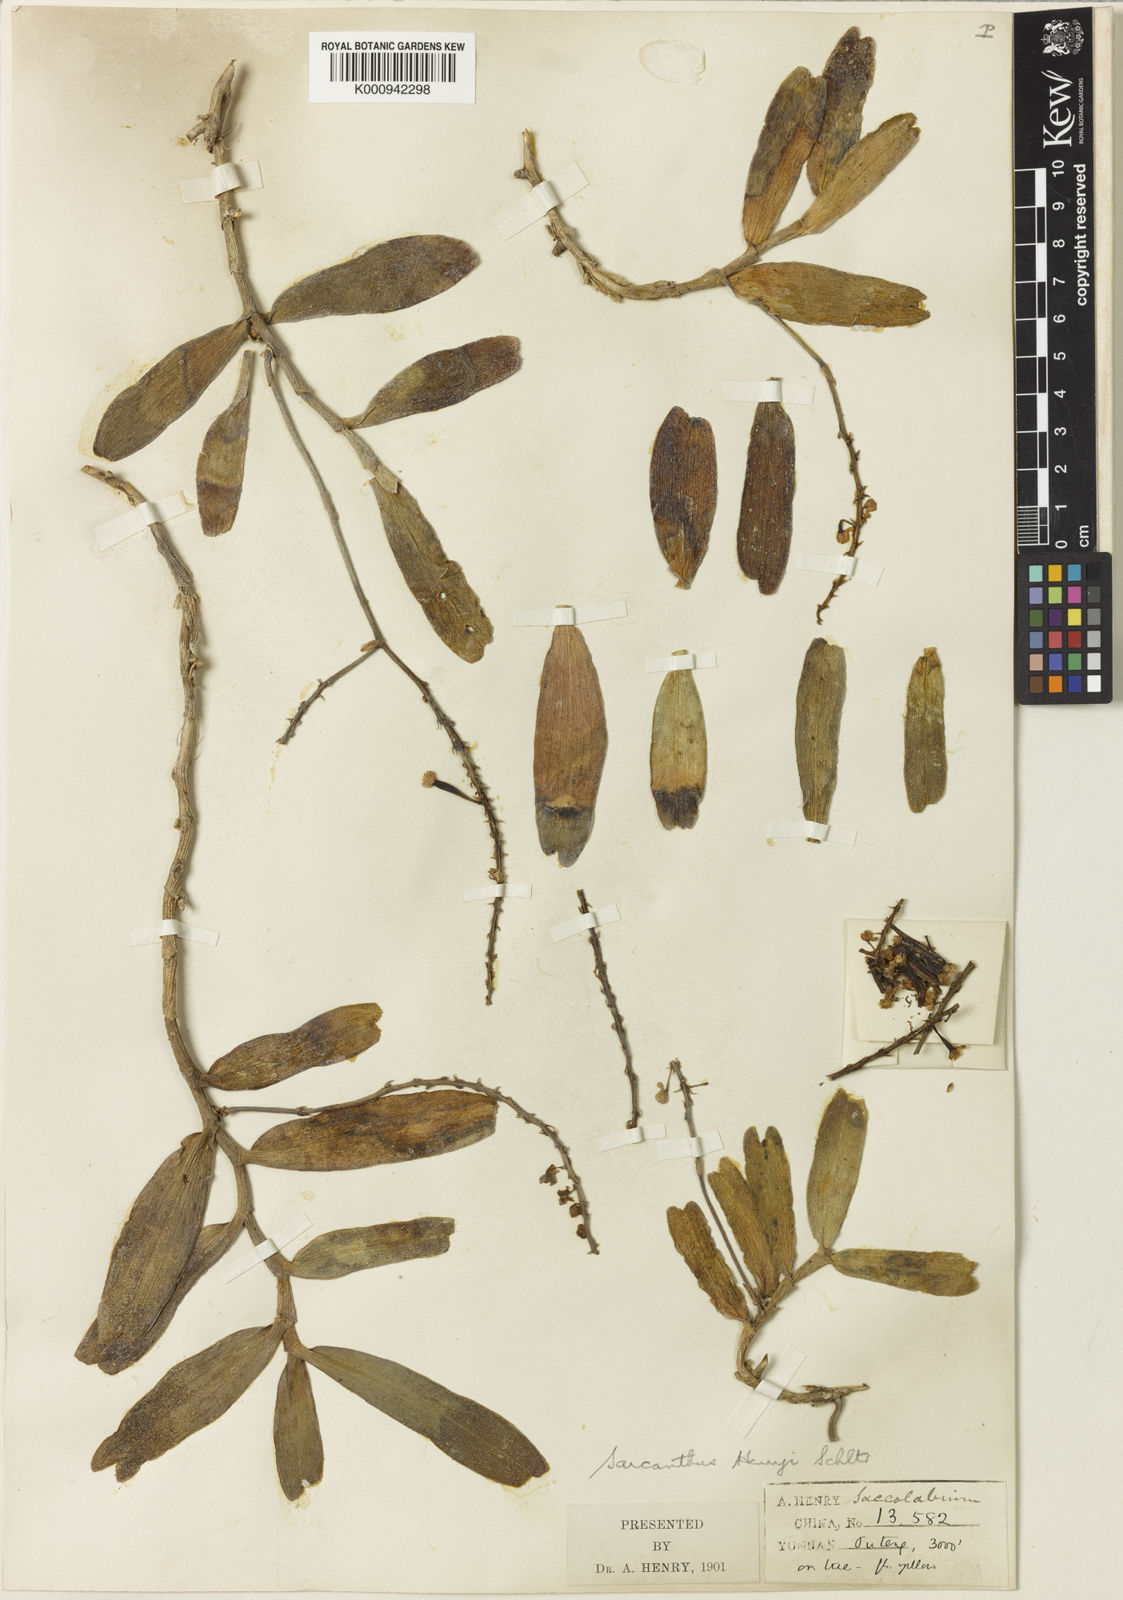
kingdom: Plantae
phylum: Tracheophyta
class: Liliopsida
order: Asparagales
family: Orchidaceae
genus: Cleisostoma
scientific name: Cleisostoma
